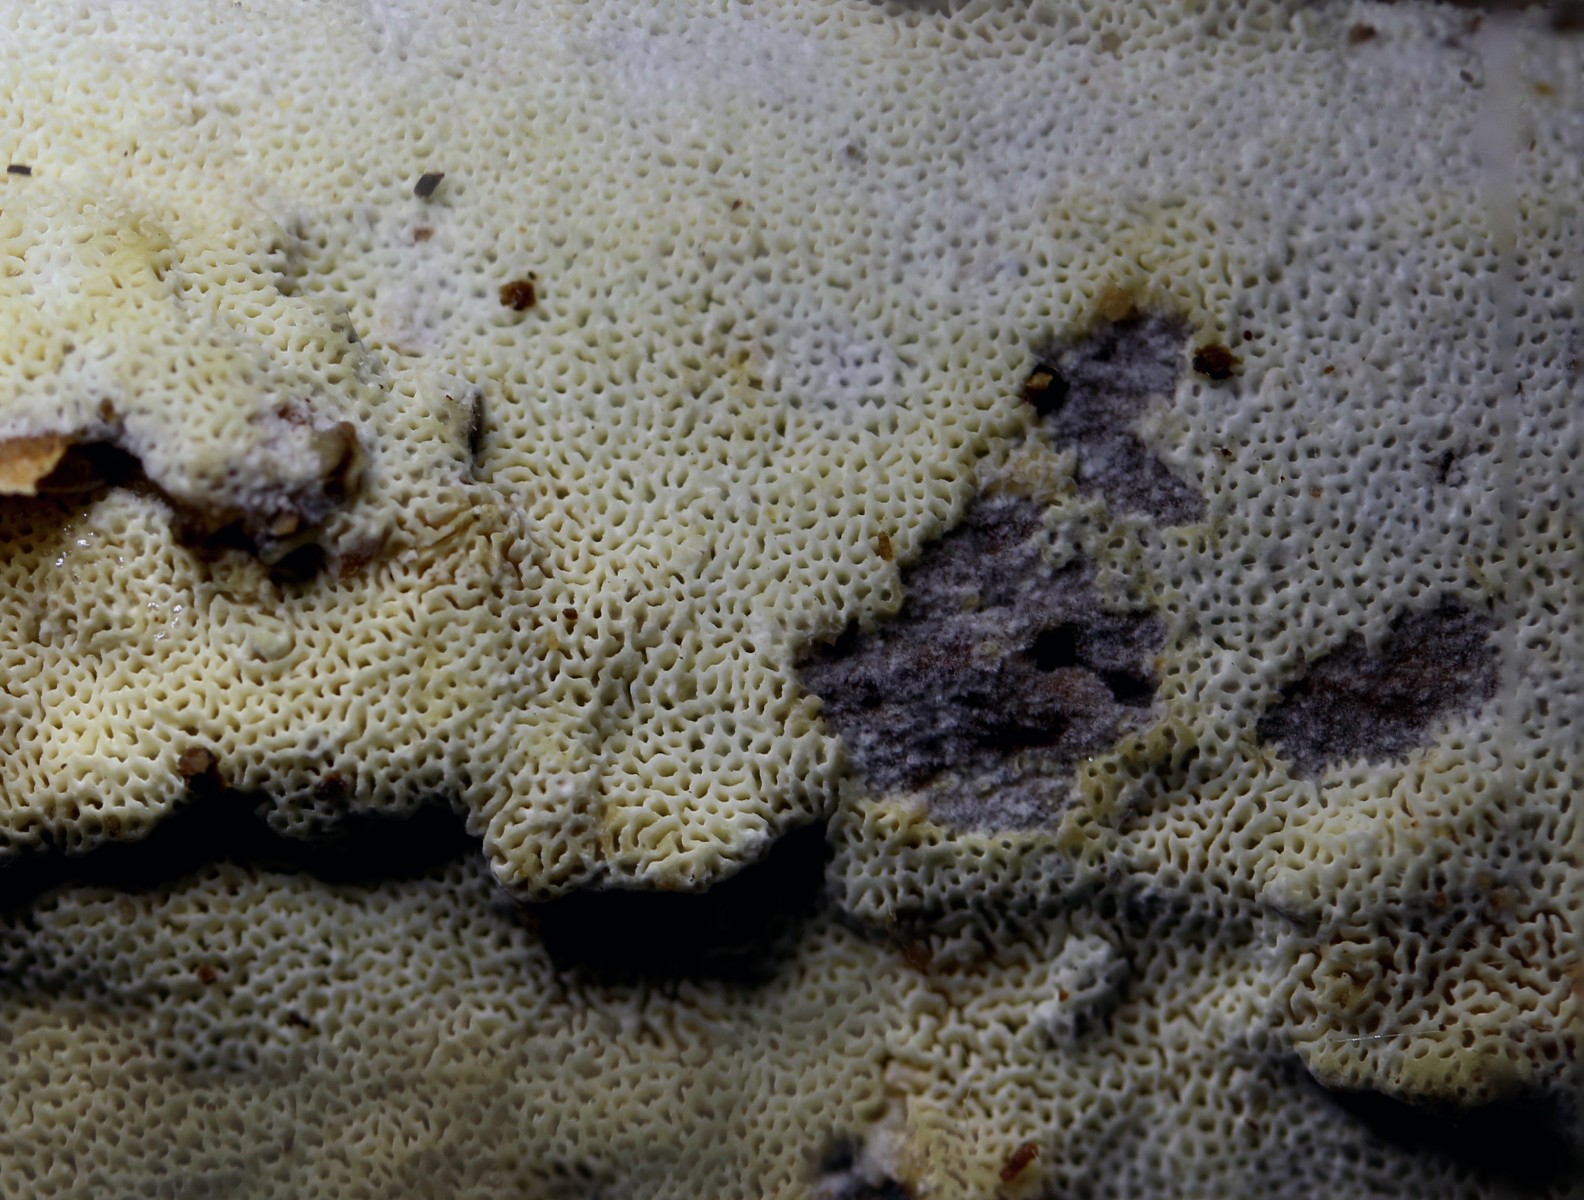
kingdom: Fungi
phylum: Basidiomycota
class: Agaricomycetes
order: Hymenochaetales
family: Schizoporaceae
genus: Xylodon
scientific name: Xylodon subtropicus
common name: labyrint-tandsvamp
